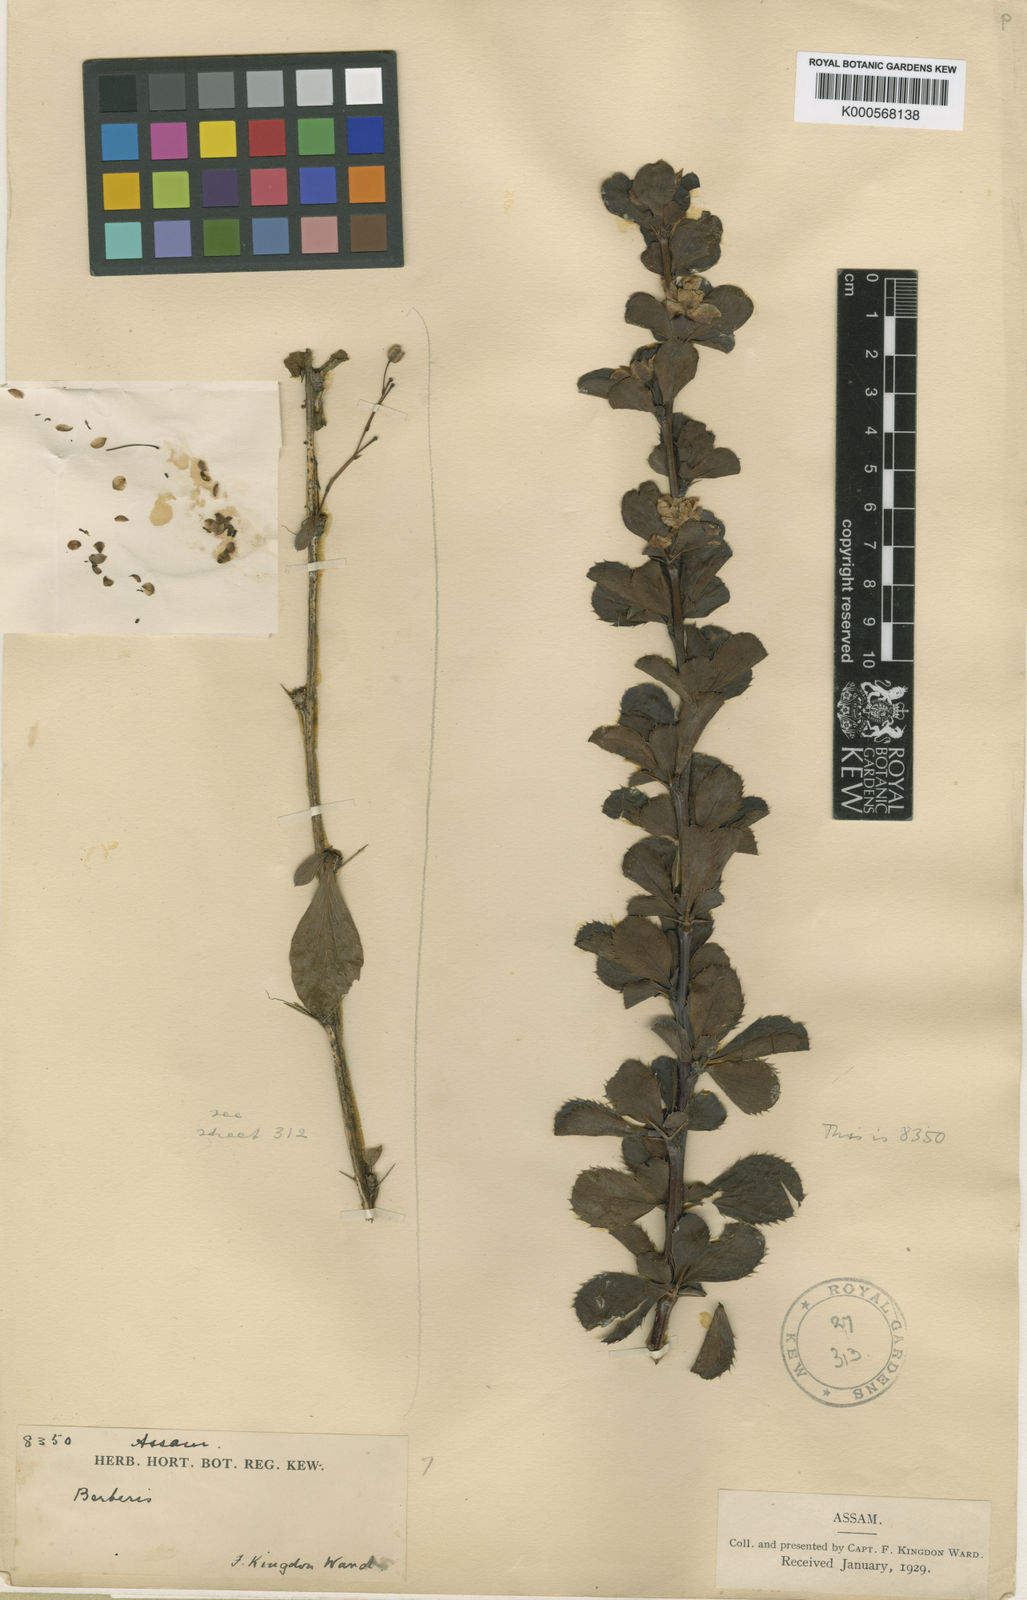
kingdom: Plantae
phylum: Tracheophyta
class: Magnoliopsida
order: Ranunculales
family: Berberidaceae
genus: Berberis
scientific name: Berberis orthobotrys
